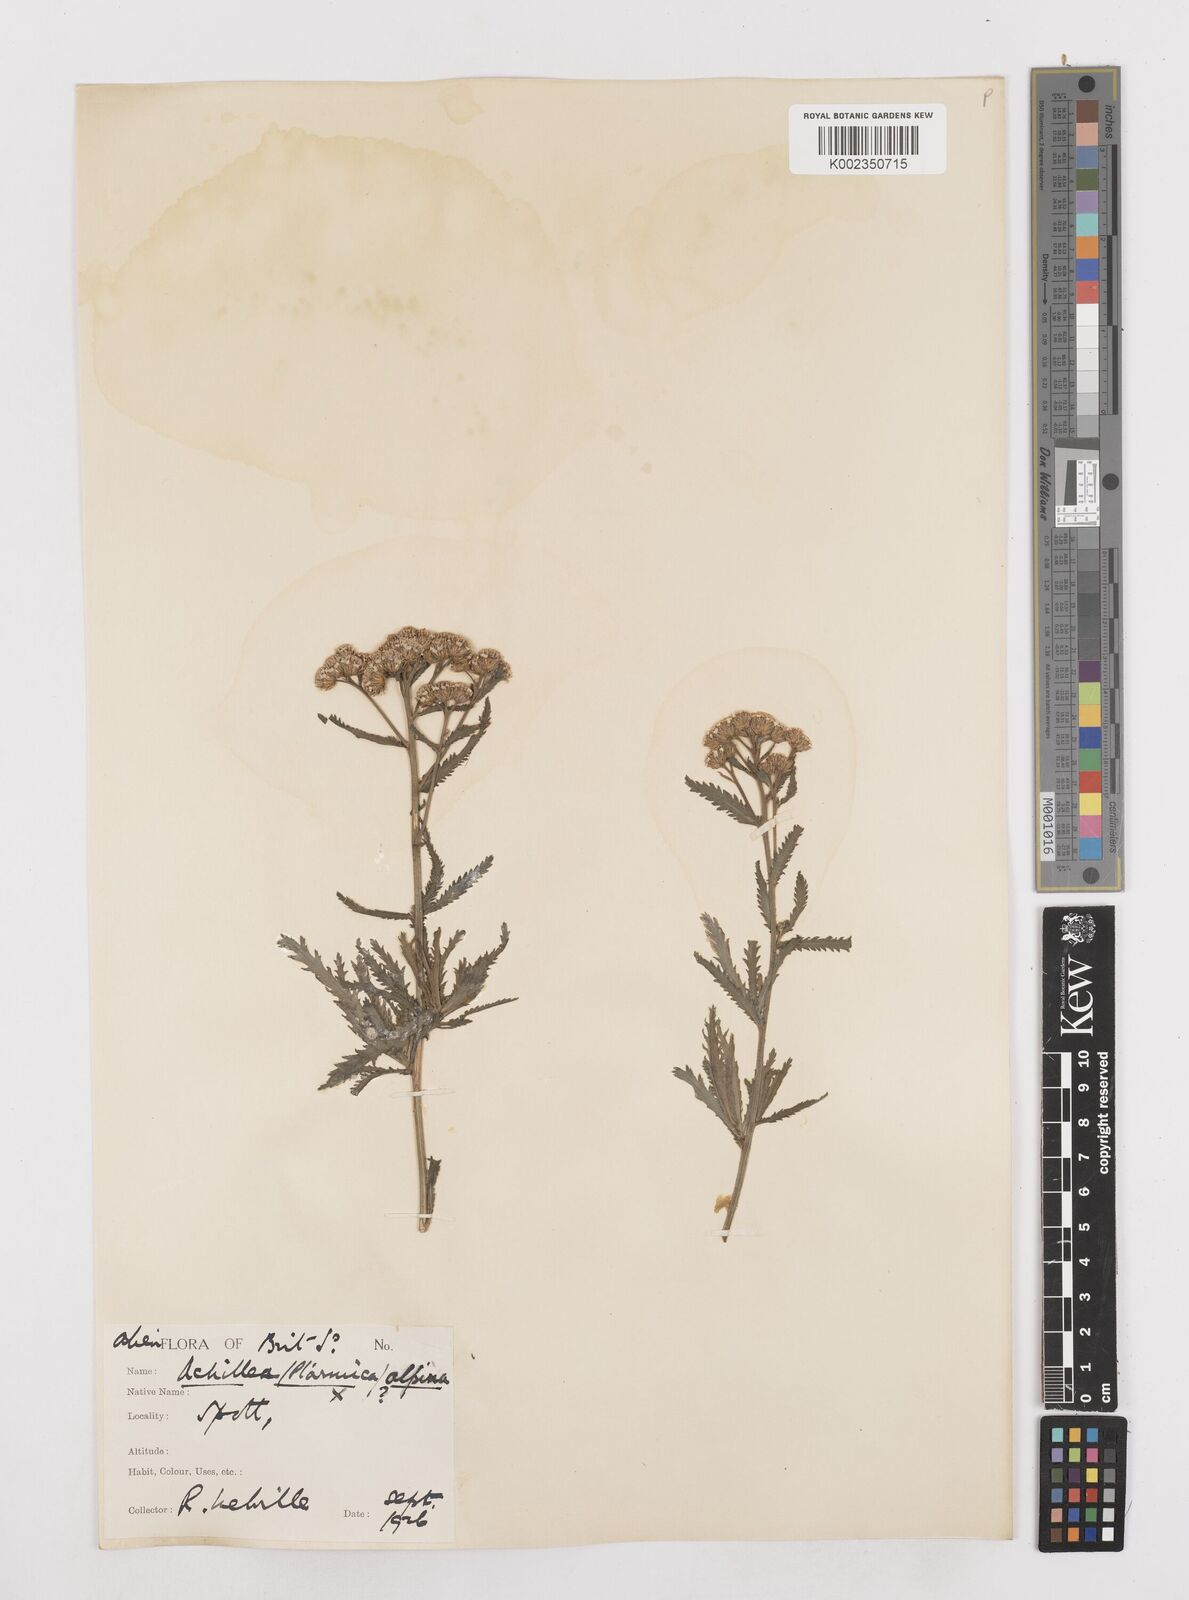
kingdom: Plantae
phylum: Tracheophyta
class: Magnoliopsida
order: Asterales
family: Asteraceae
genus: Achillea
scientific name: Achillea impatiens
